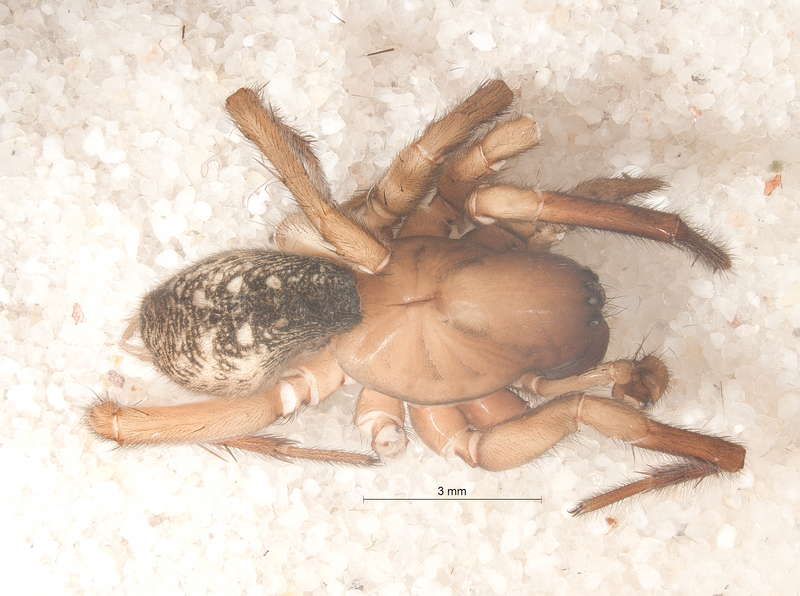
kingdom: Animalia
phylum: Arthropoda
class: Arachnida
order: Araneae
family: Agelenidae
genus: Inermocoelotes
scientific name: Inermocoelotes inermis
